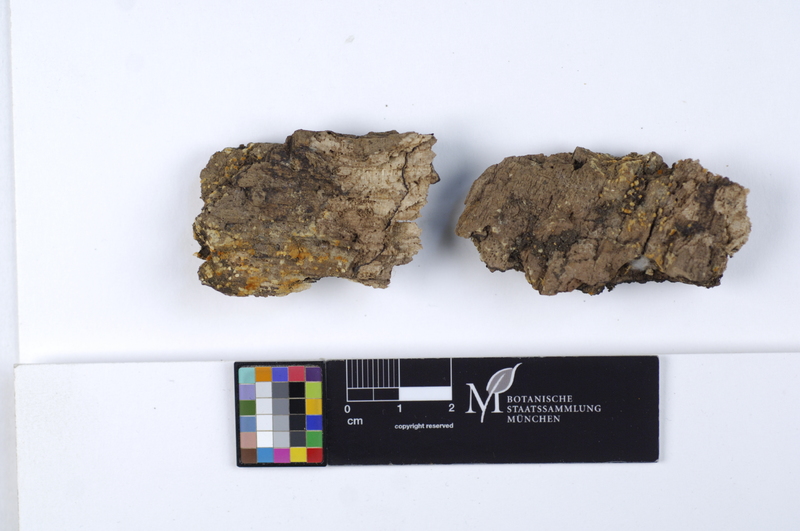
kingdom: Fungi
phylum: Basidiomycota
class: Agaricomycetes
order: Cantharellales
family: Botryobasidiaceae
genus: Botryobasidium
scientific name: Botryobasidium aureum
